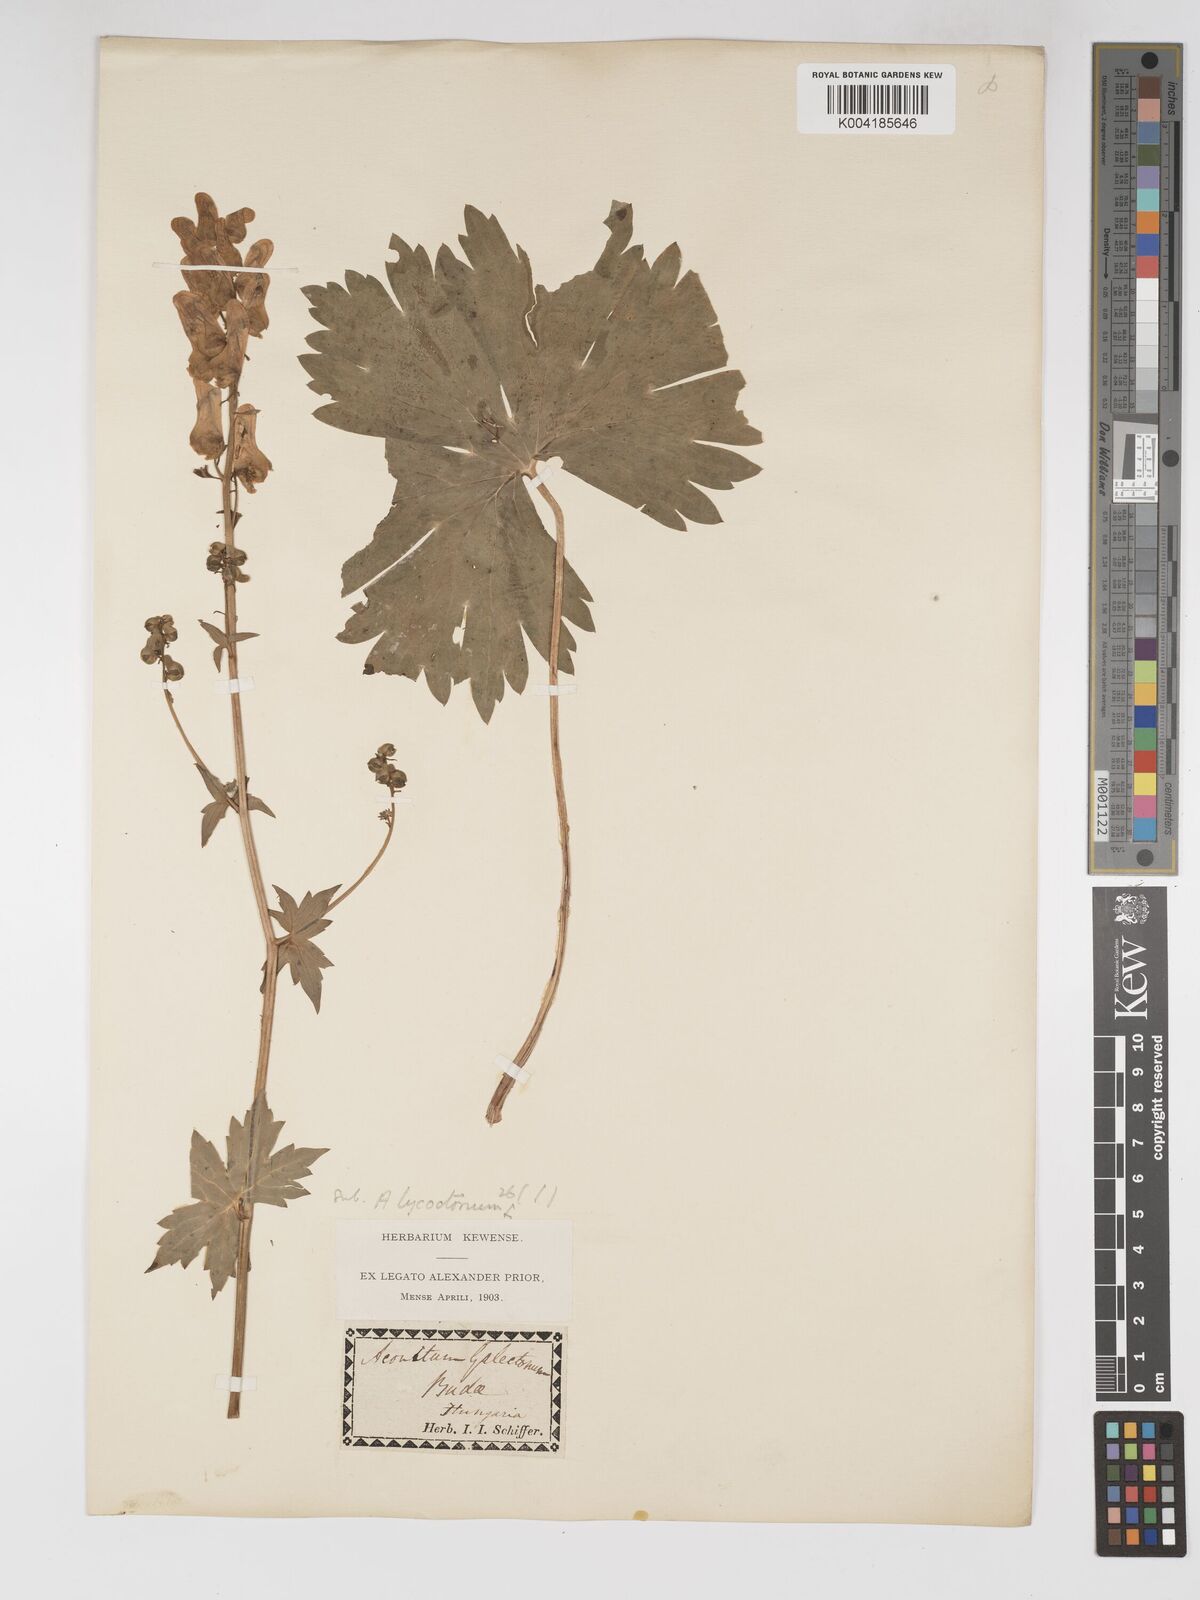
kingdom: Plantae
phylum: Tracheophyta
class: Magnoliopsida
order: Ranunculales
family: Ranunculaceae
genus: Aconitum
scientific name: Aconitum lycoctonum
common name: Wolf's-bane
